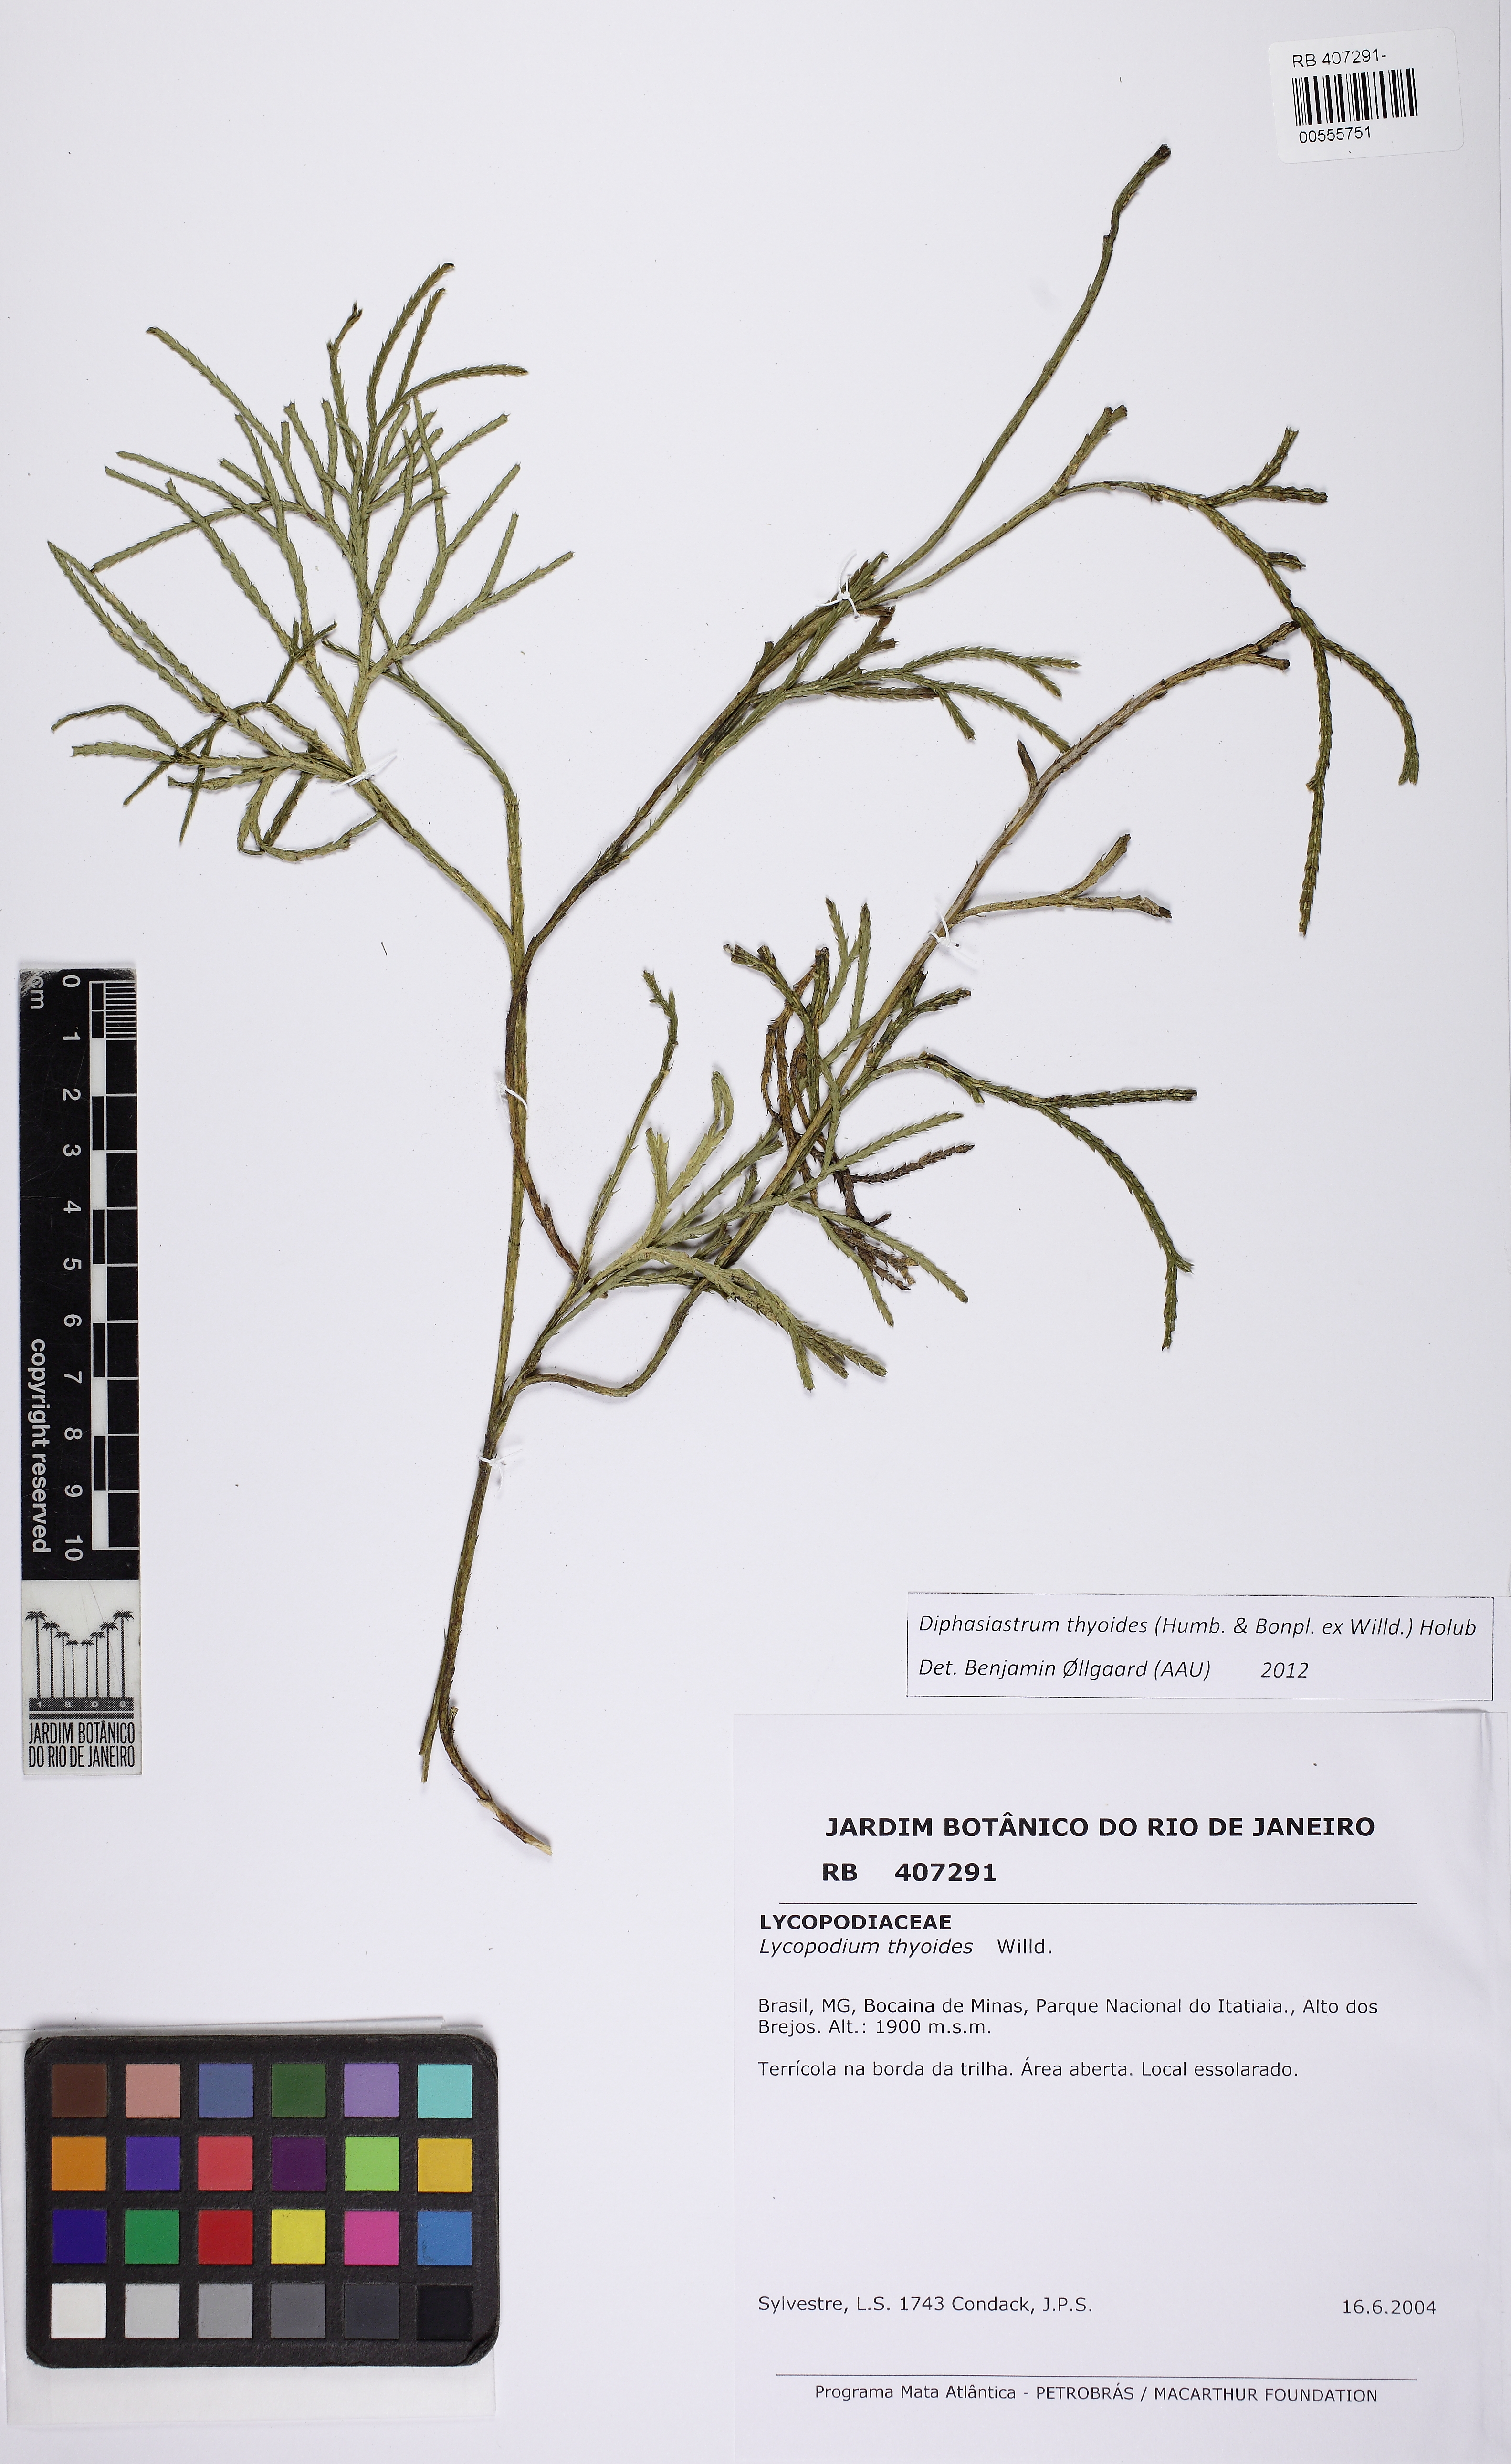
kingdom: Plantae
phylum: Tracheophyta
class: Lycopodiopsida
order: Lycopodiales
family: Lycopodiaceae
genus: Diphasiastrum
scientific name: Diphasiastrum thyoides
